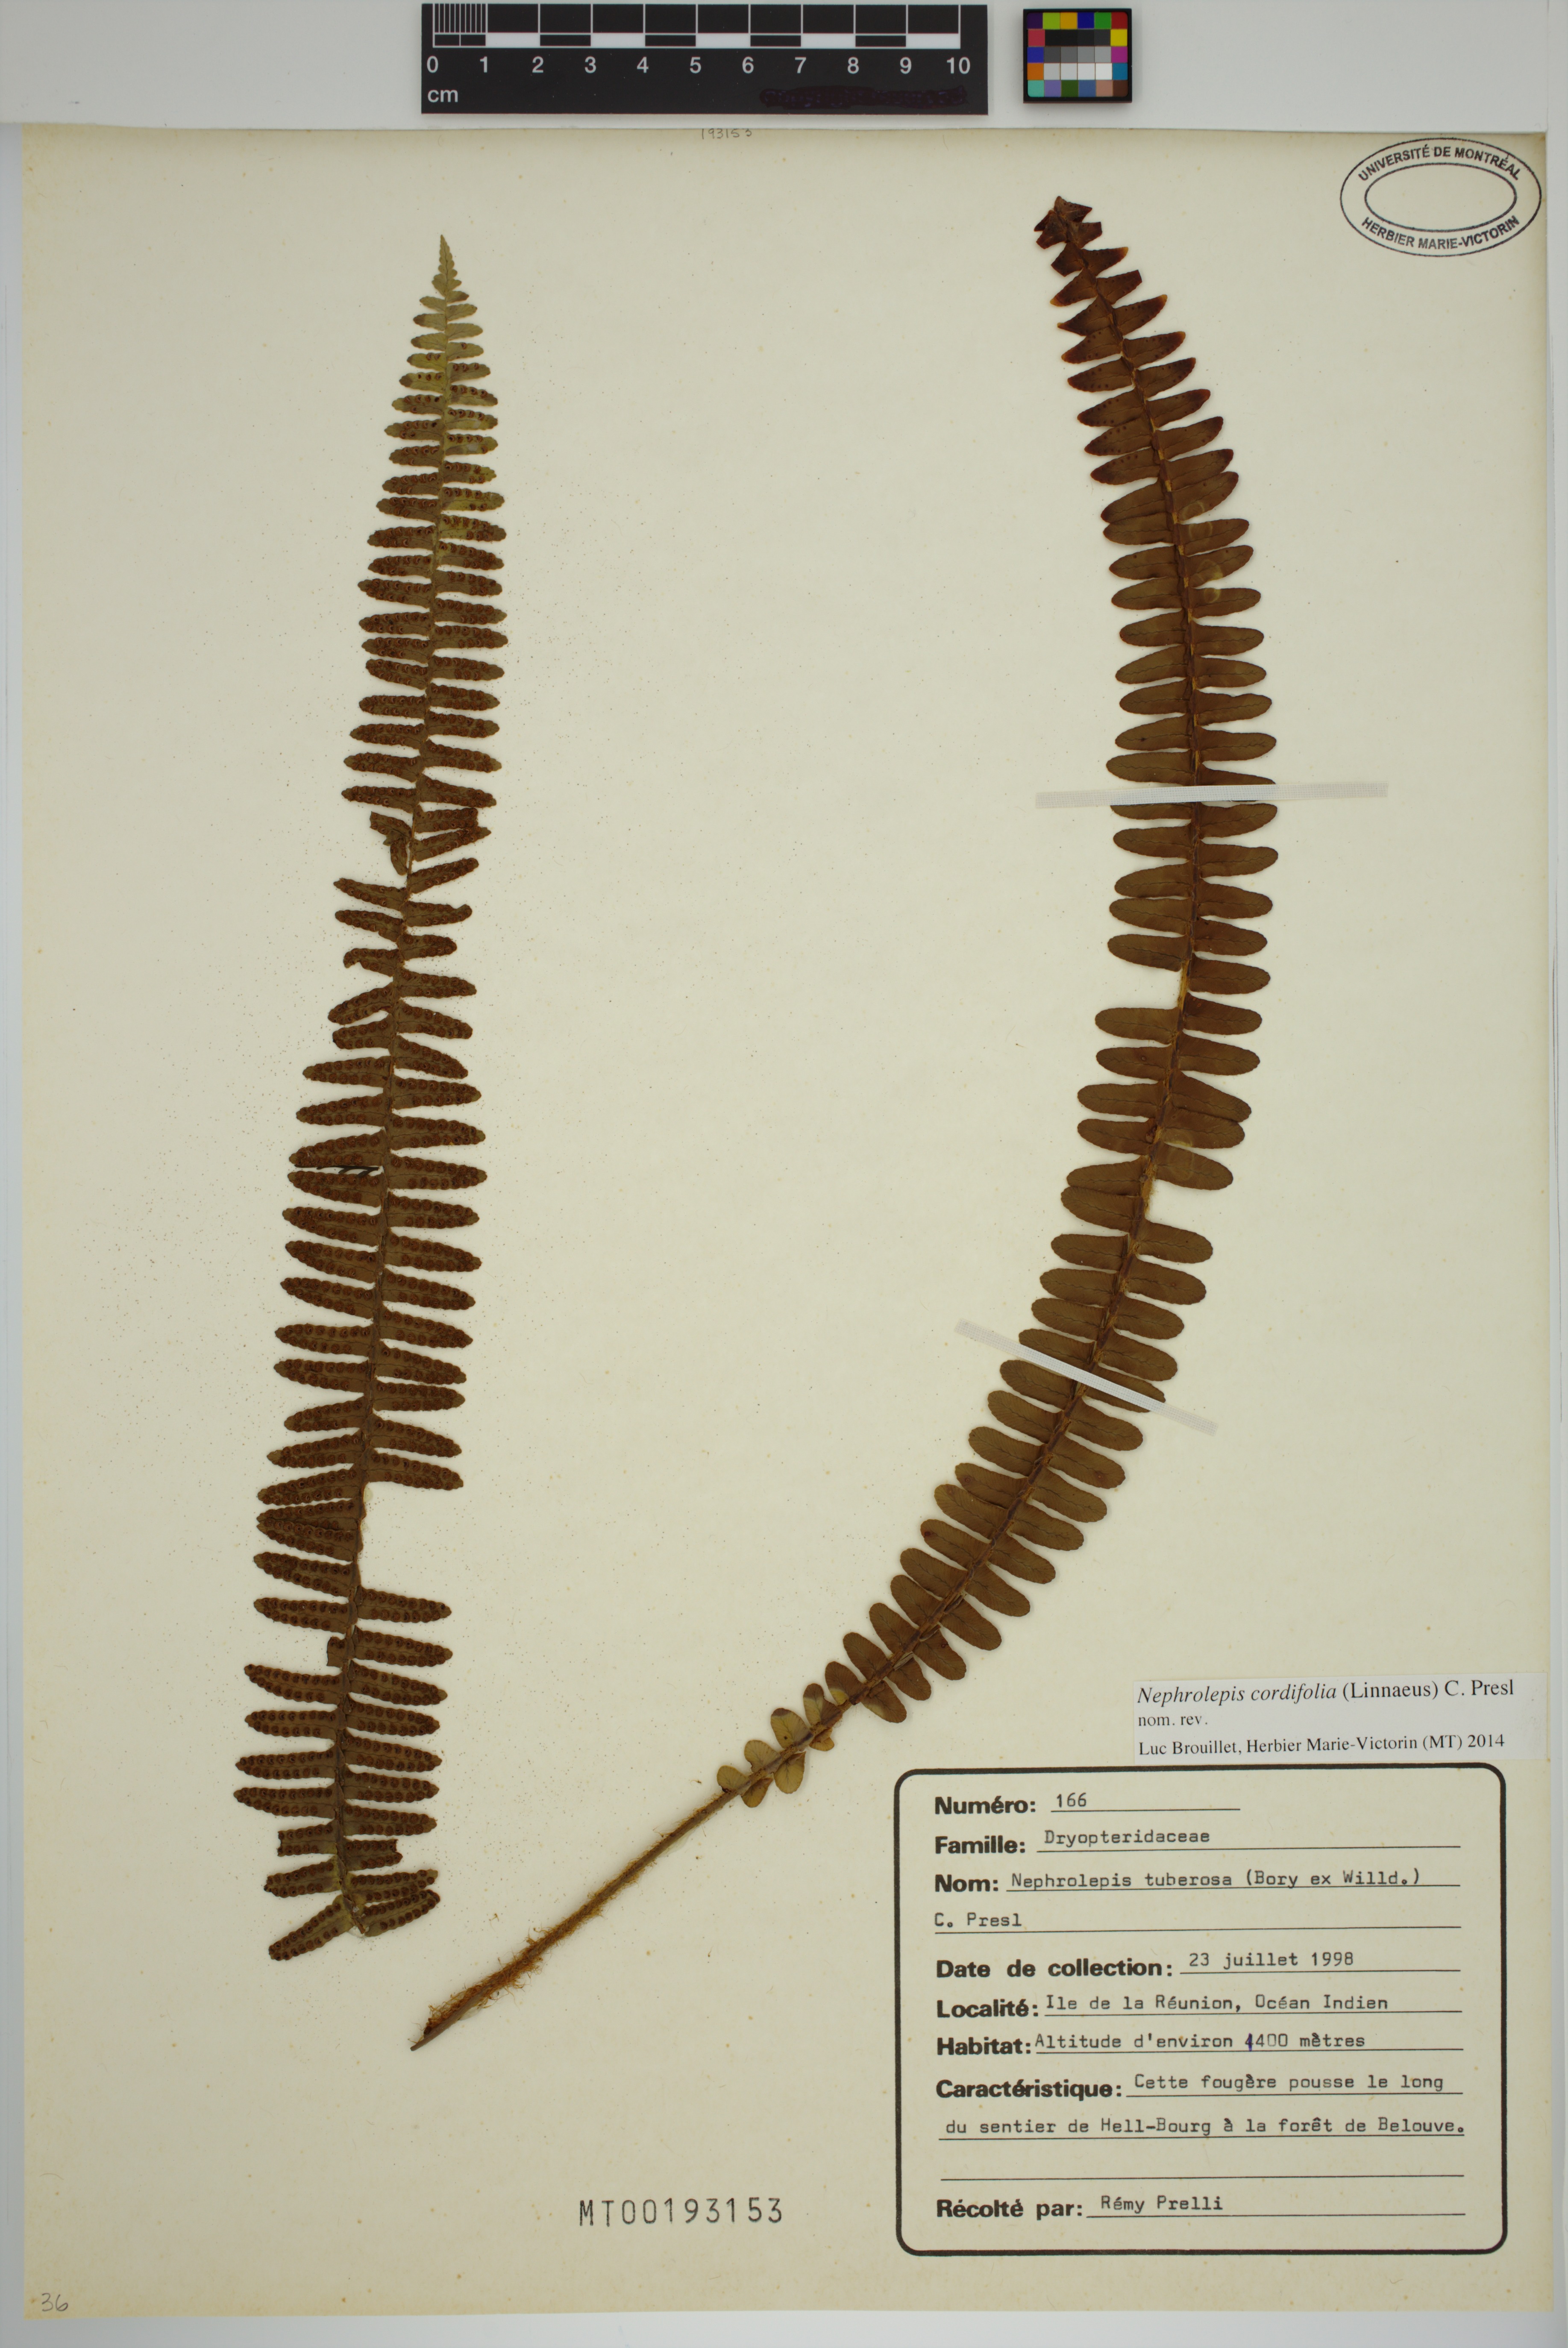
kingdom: Plantae
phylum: Tracheophyta
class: Polypodiopsida
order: Polypodiales
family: Nephrolepidaceae
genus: Nephrolepis
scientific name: Nephrolepis cordifolia
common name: Narrow swordfern
